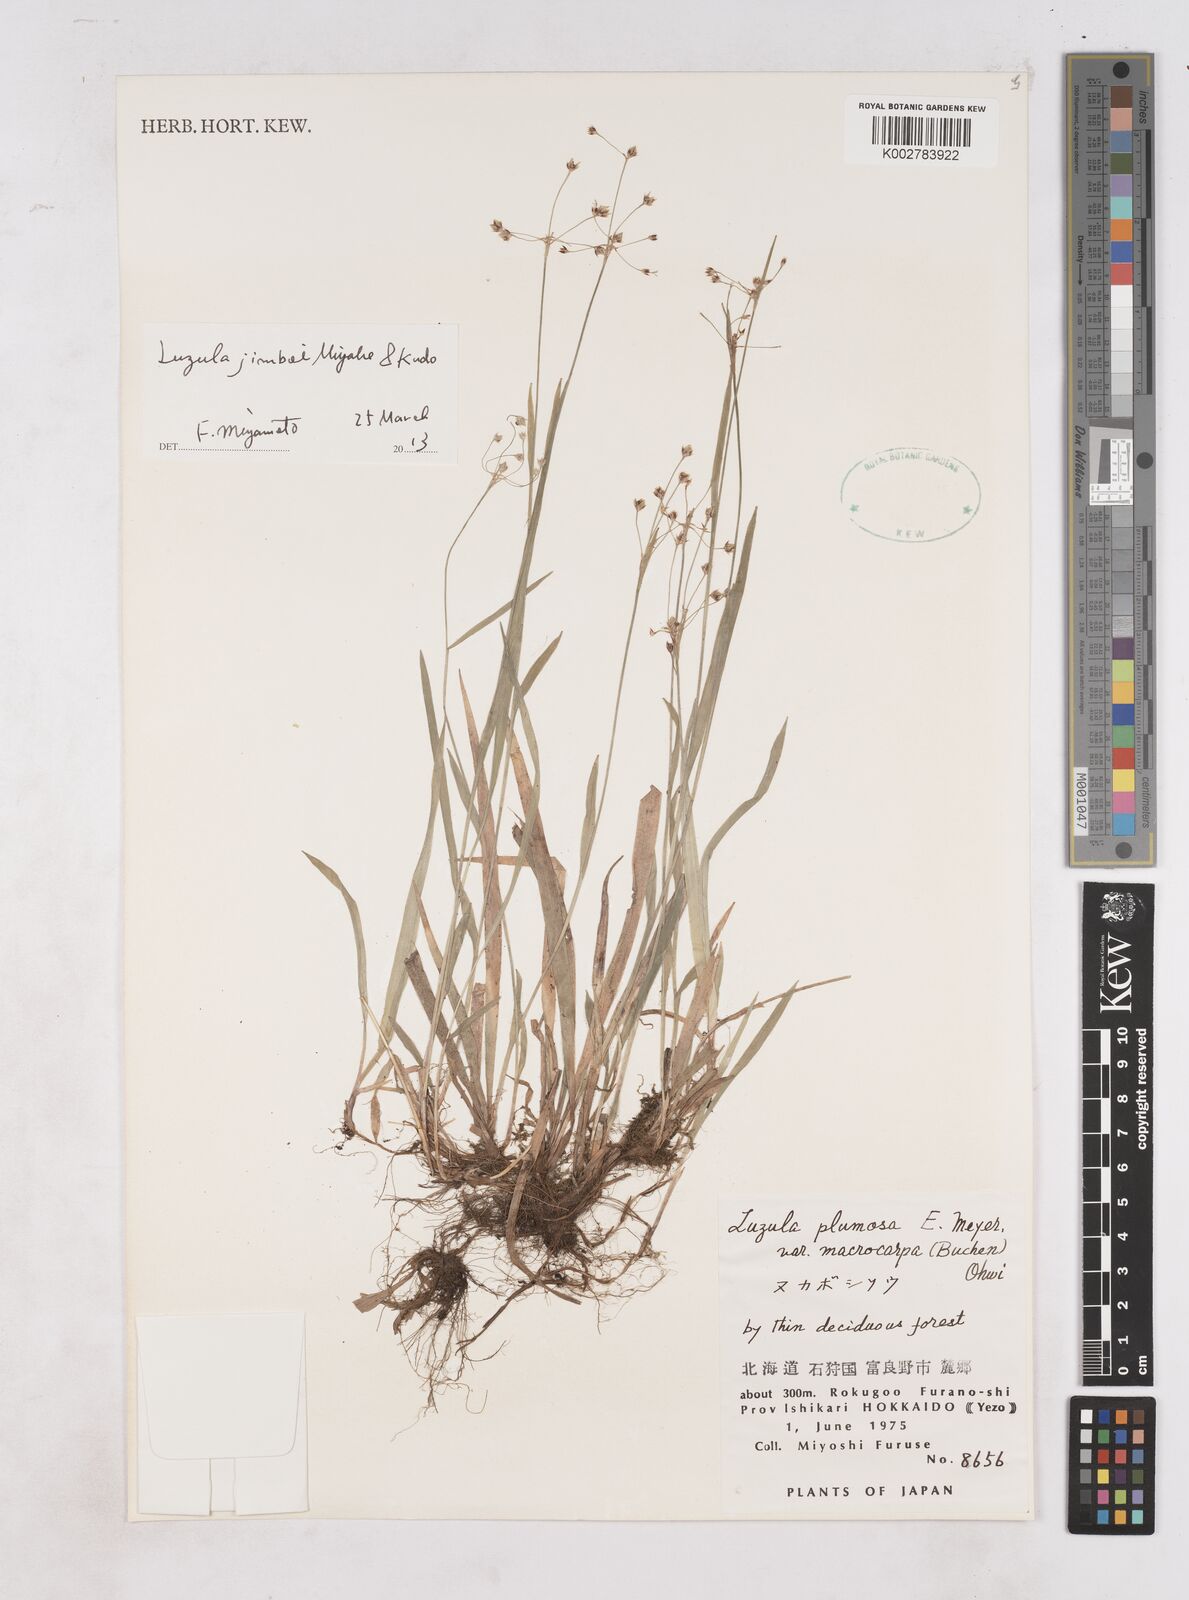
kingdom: Plantae
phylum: Tracheophyta
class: Liliopsida
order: Poales
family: Juncaceae
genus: Luzula
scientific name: Luzula plumosa
